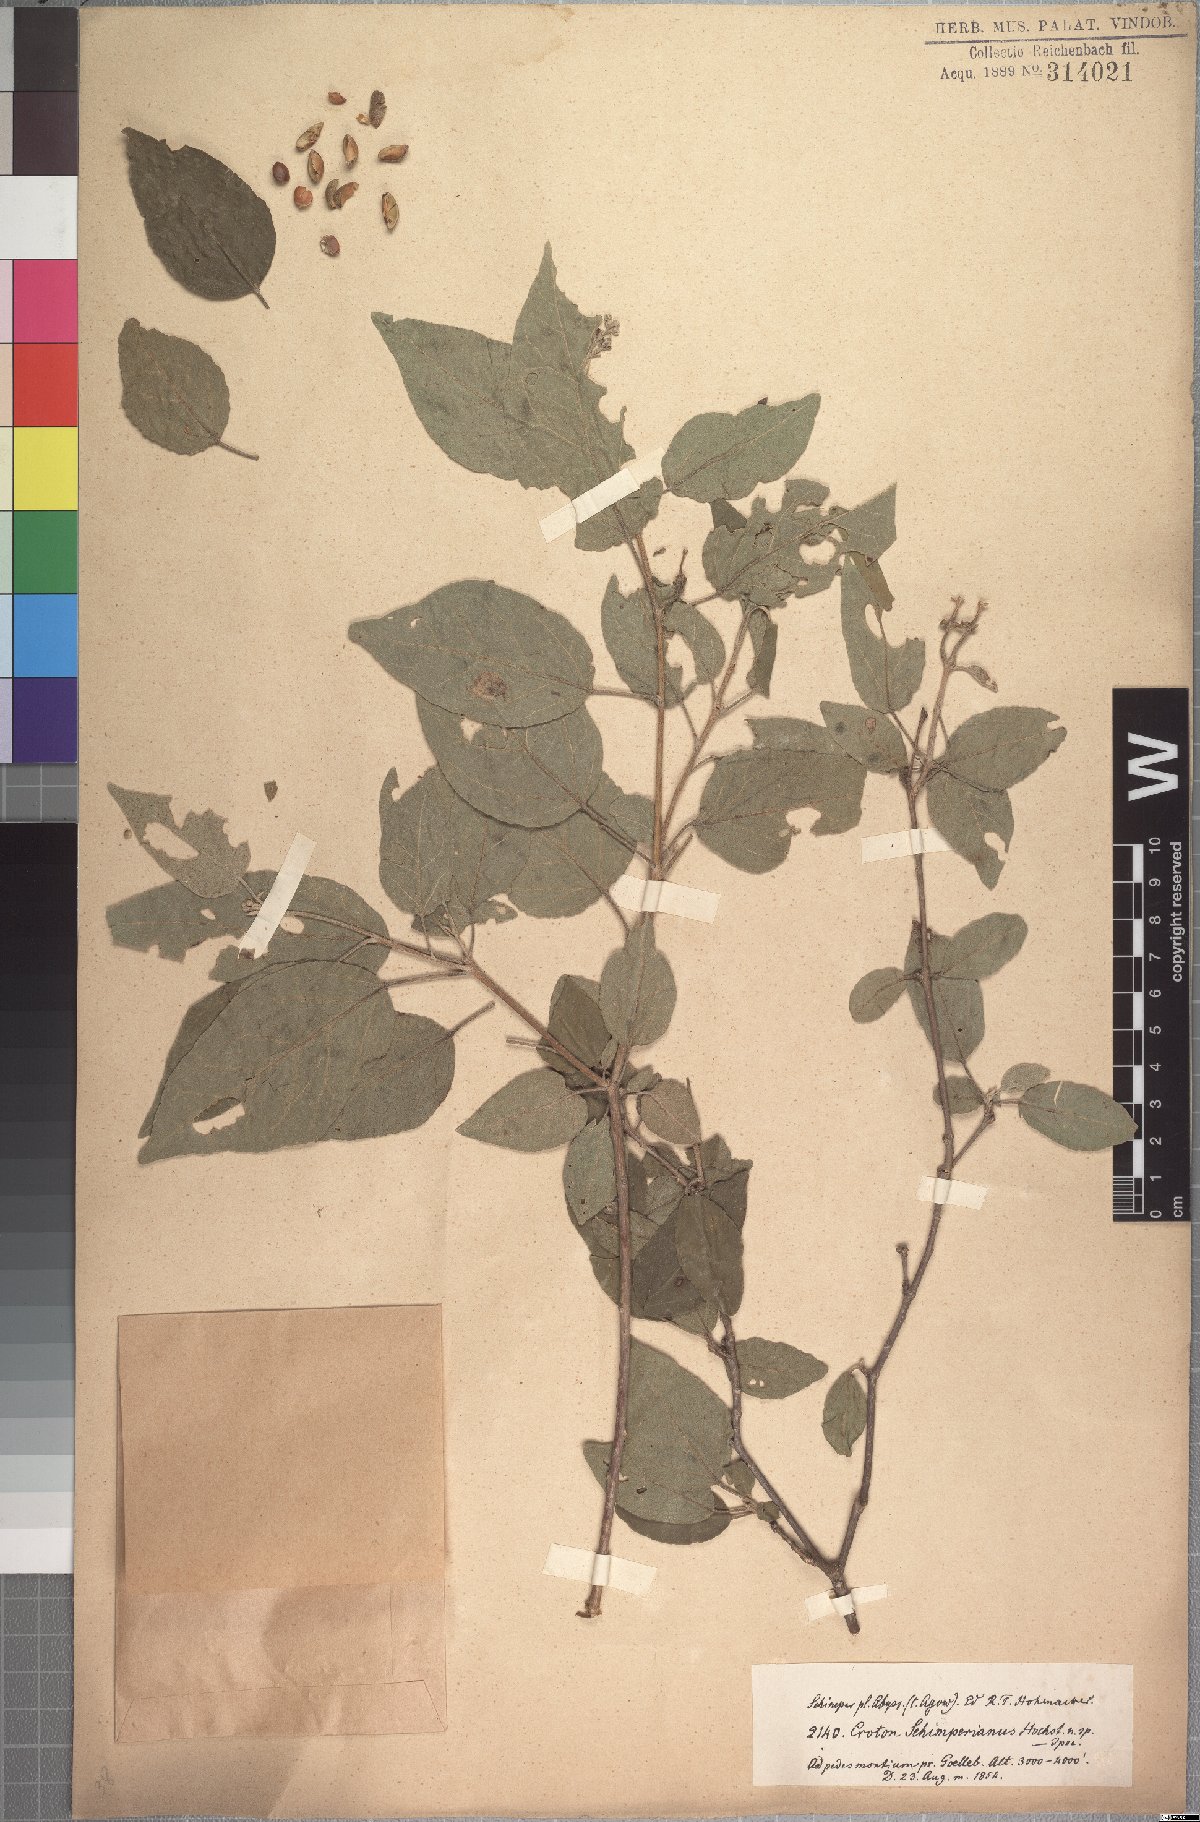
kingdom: Plantae
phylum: Tracheophyta
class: Magnoliopsida
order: Malpighiales
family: Euphorbiaceae
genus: Croton
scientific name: Croton schimperianus
